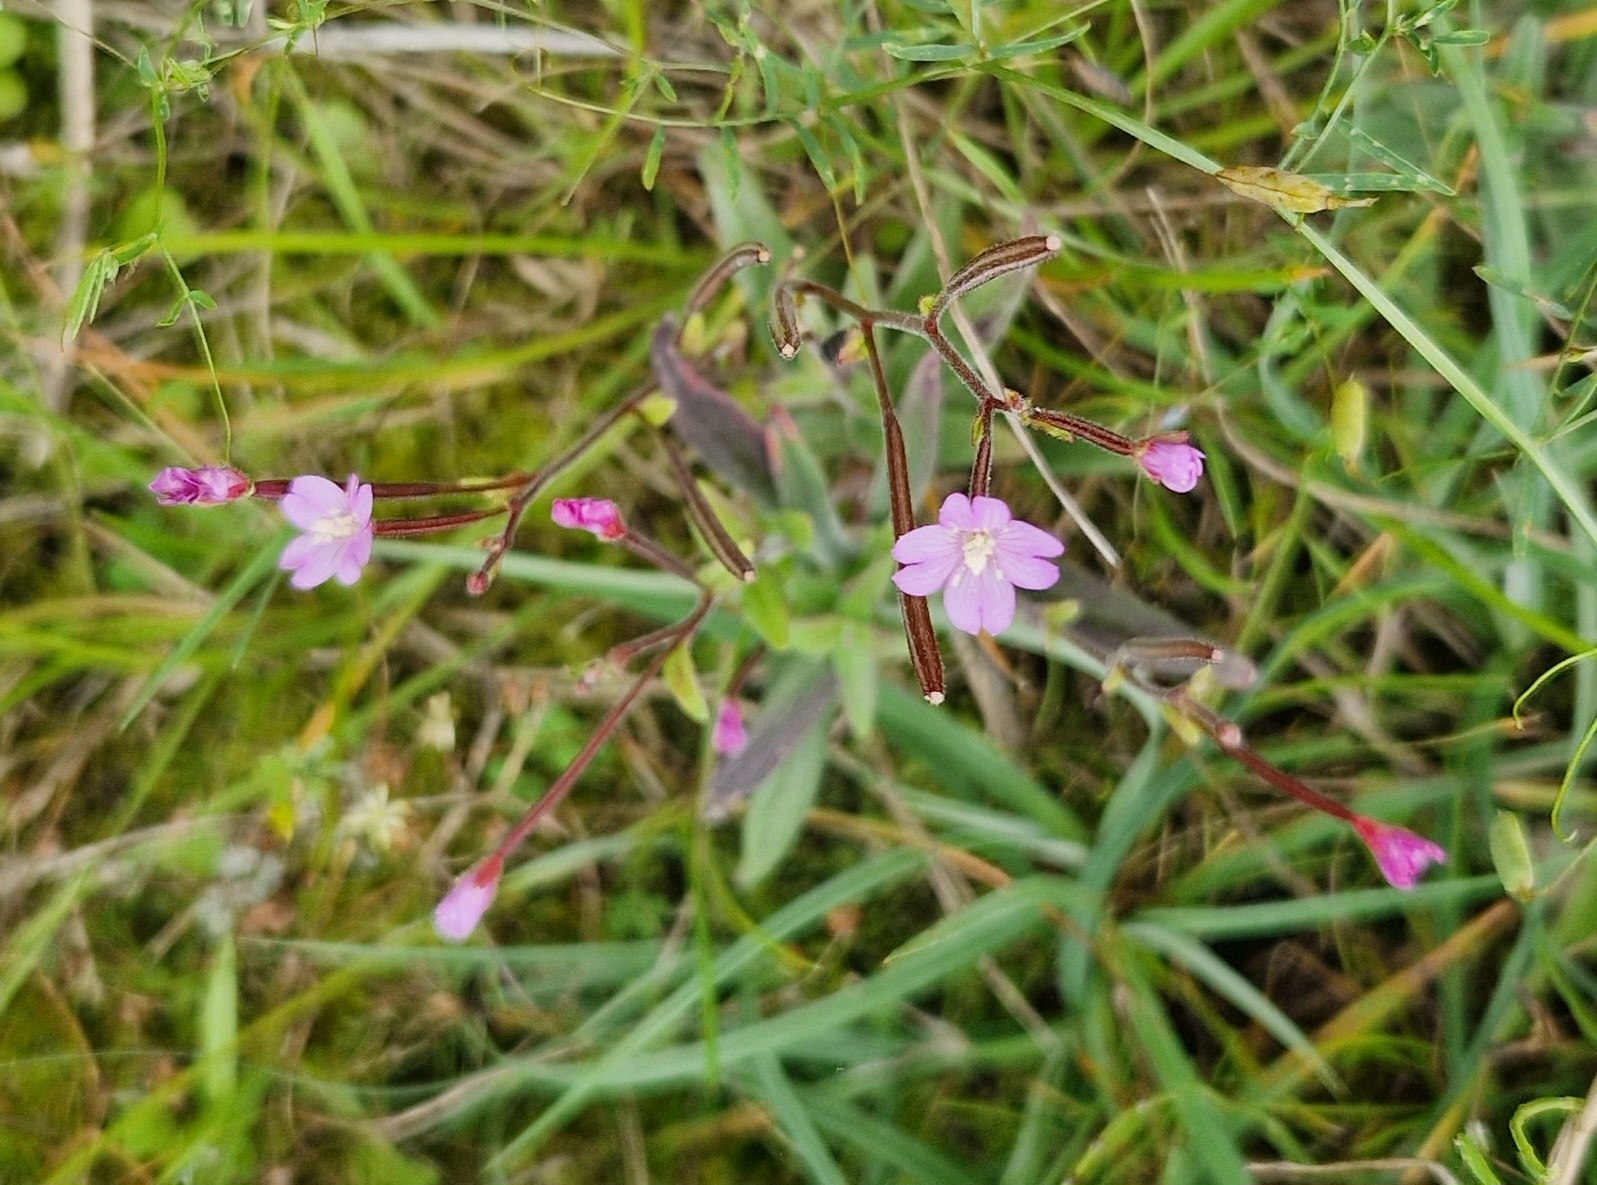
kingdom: Plantae
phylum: Tracheophyta
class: Magnoliopsida
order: Myrtales
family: Onagraceae
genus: Epilobium
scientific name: Epilobium parviflorum
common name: Dunet dueurt
